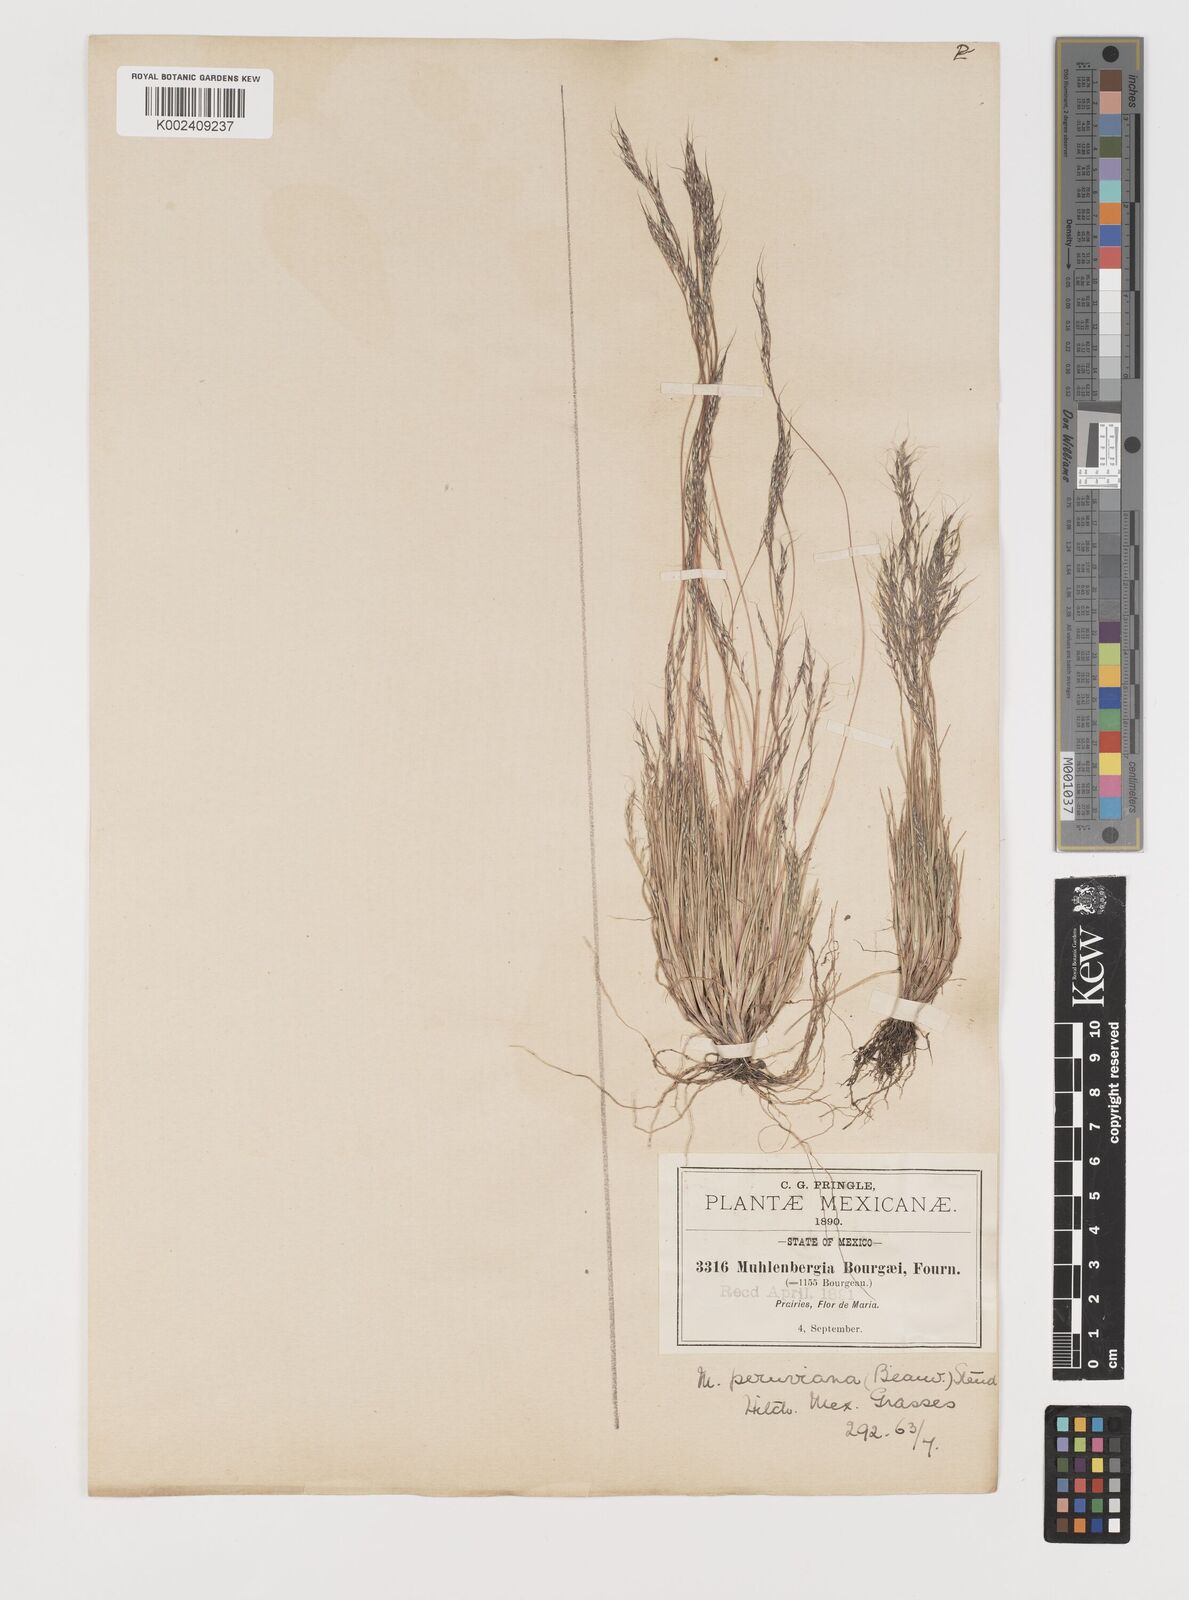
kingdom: Plantae
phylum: Tracheophyta
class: Liliopsida
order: Poales
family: Poaceae
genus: Muhlenbergia
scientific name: Muhlenbergia peruviana
